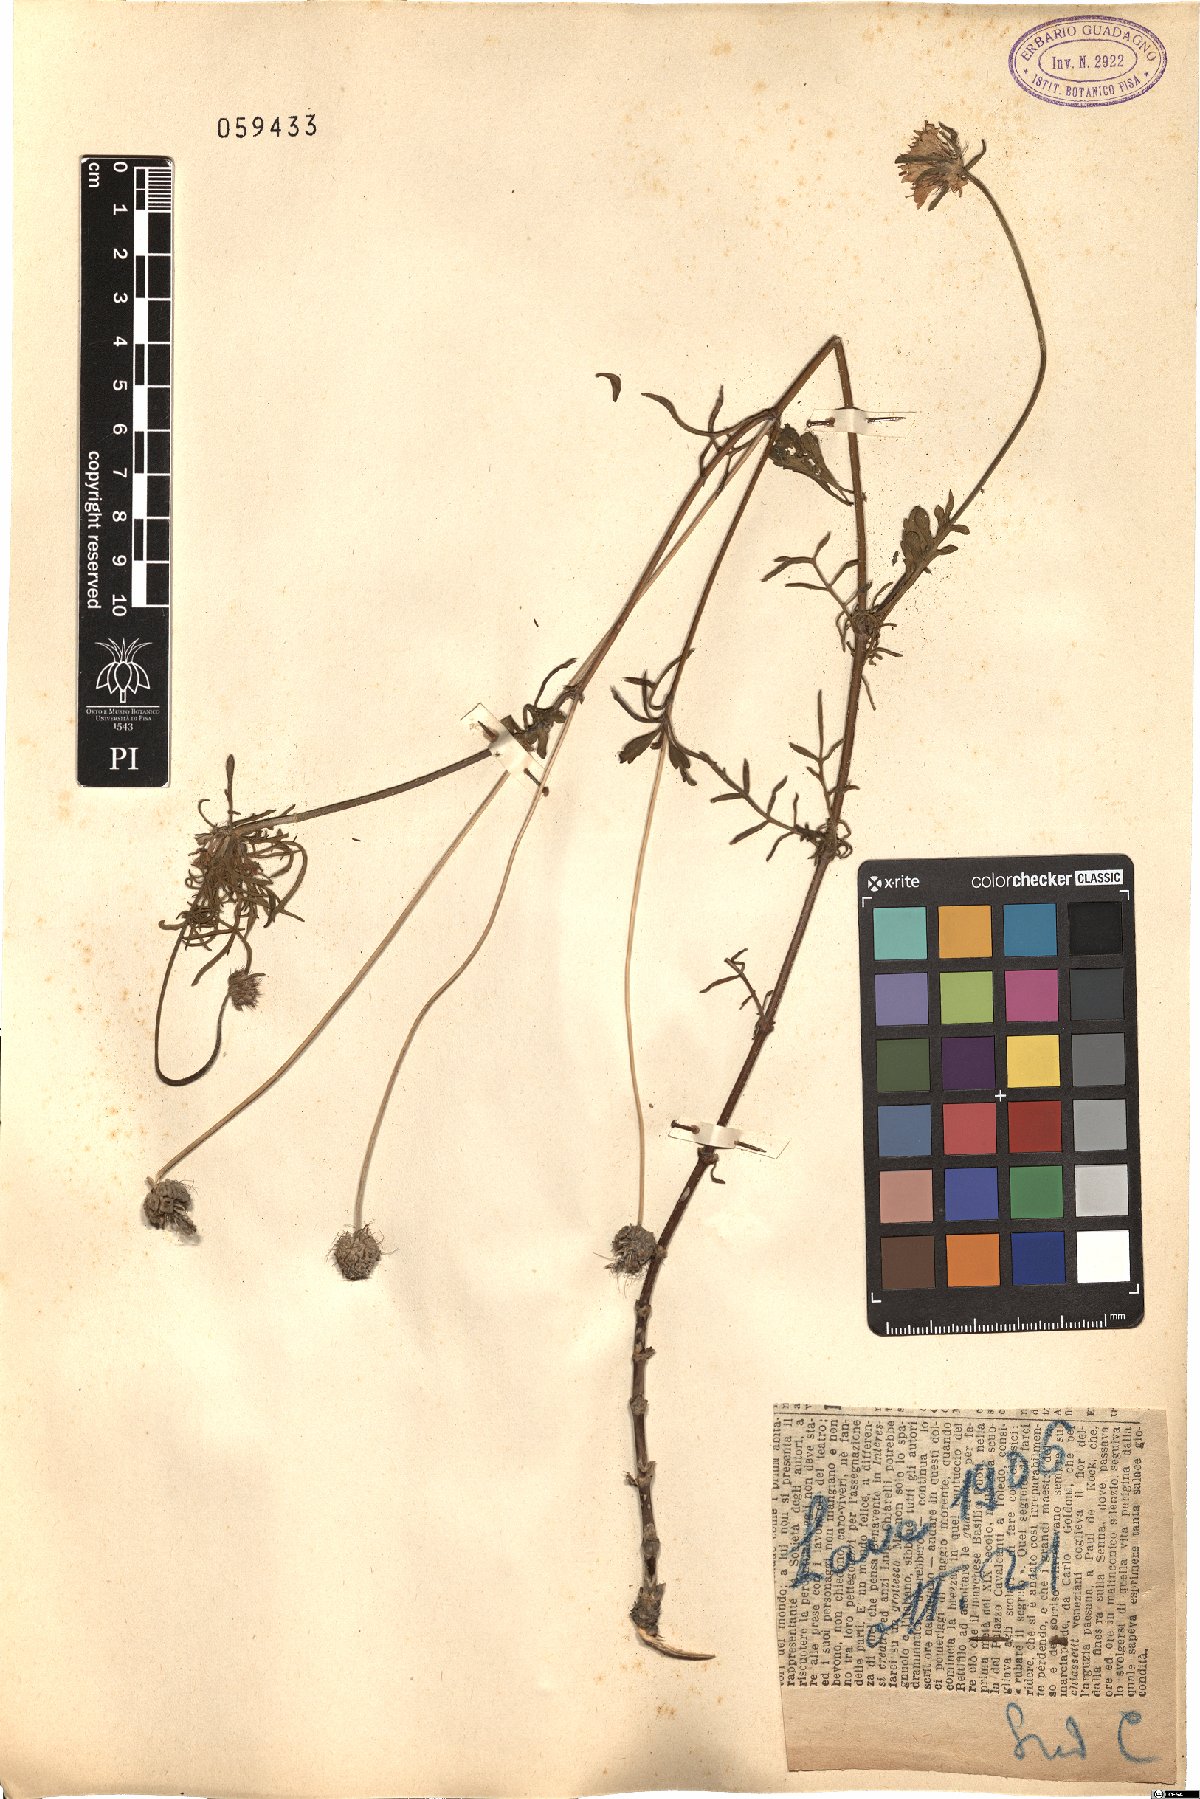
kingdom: Plantae
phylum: Tracheophyta
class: Magnoliopsida
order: Dipsacales
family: Caprifoliaceae
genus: Sixalix
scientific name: Sixalix atropurpurea
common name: Sweet scabious
